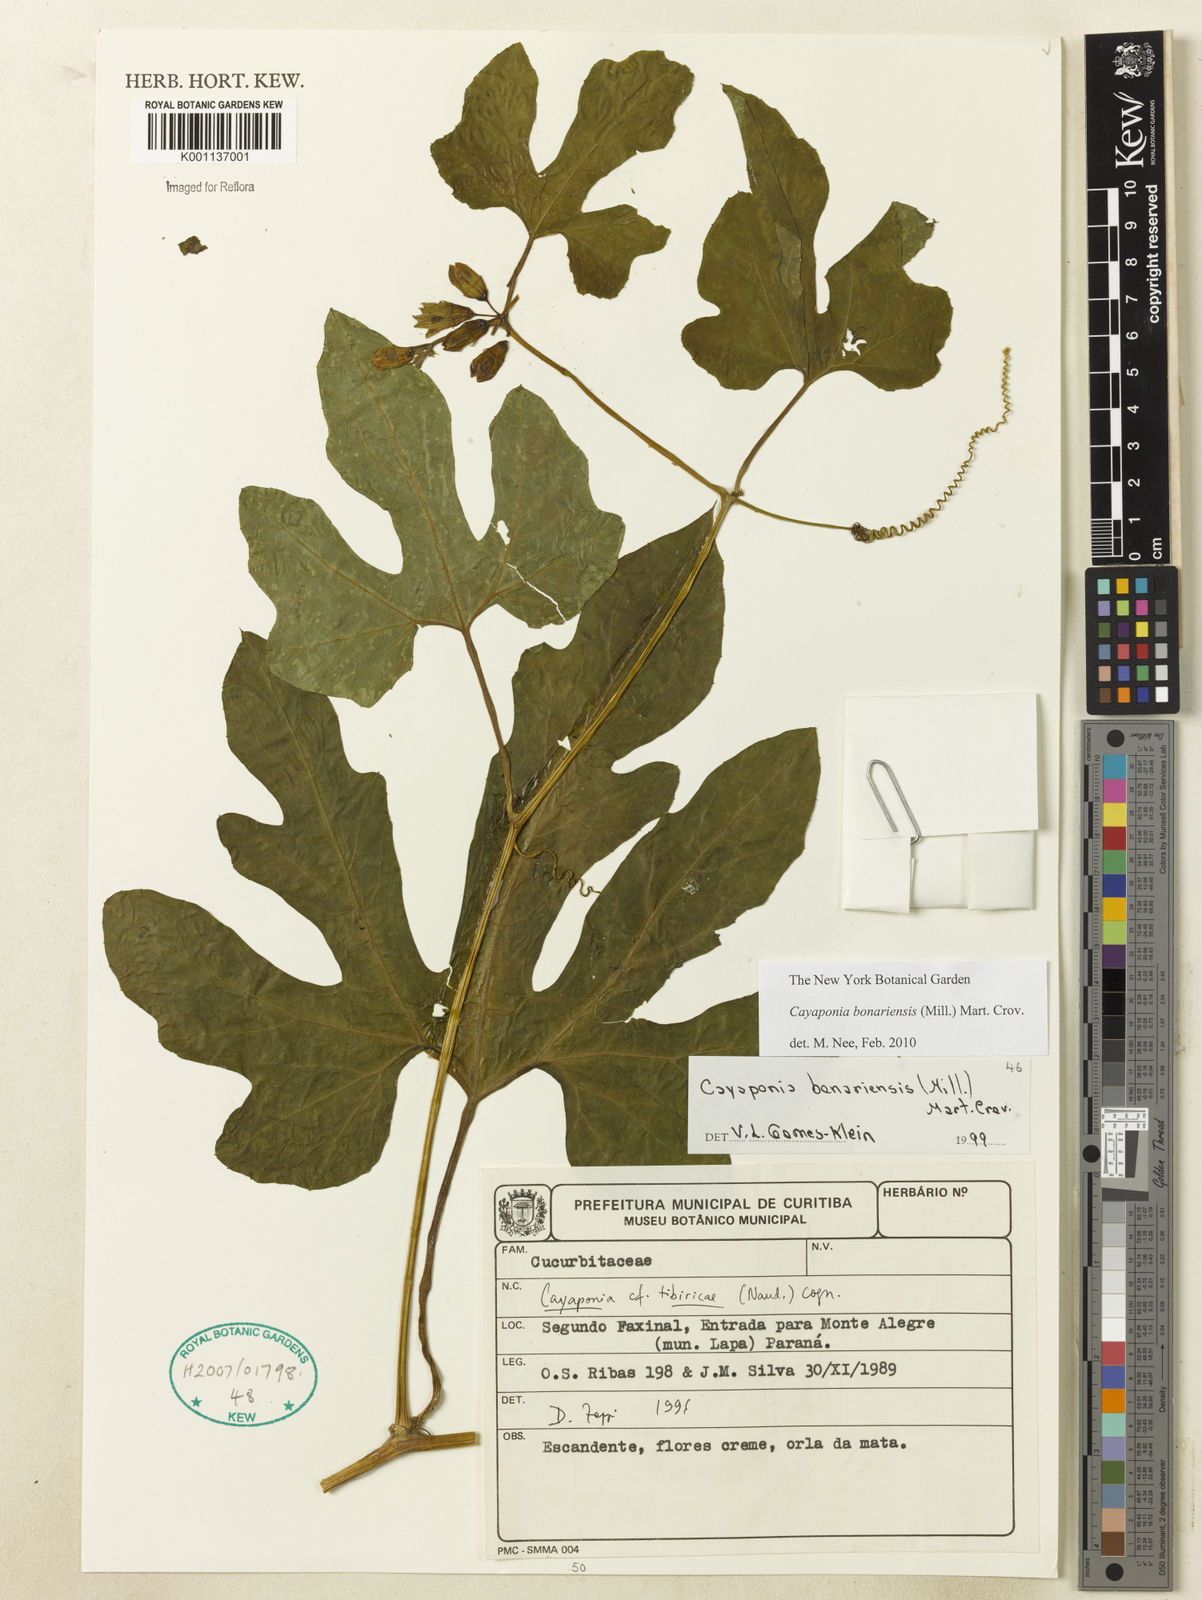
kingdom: Plantae
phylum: Tracheophyta
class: Magnoliopsida
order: Cucurbitales
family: Cucurbitaceae
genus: Cayaponia
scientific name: Cayaponia bonariensis
